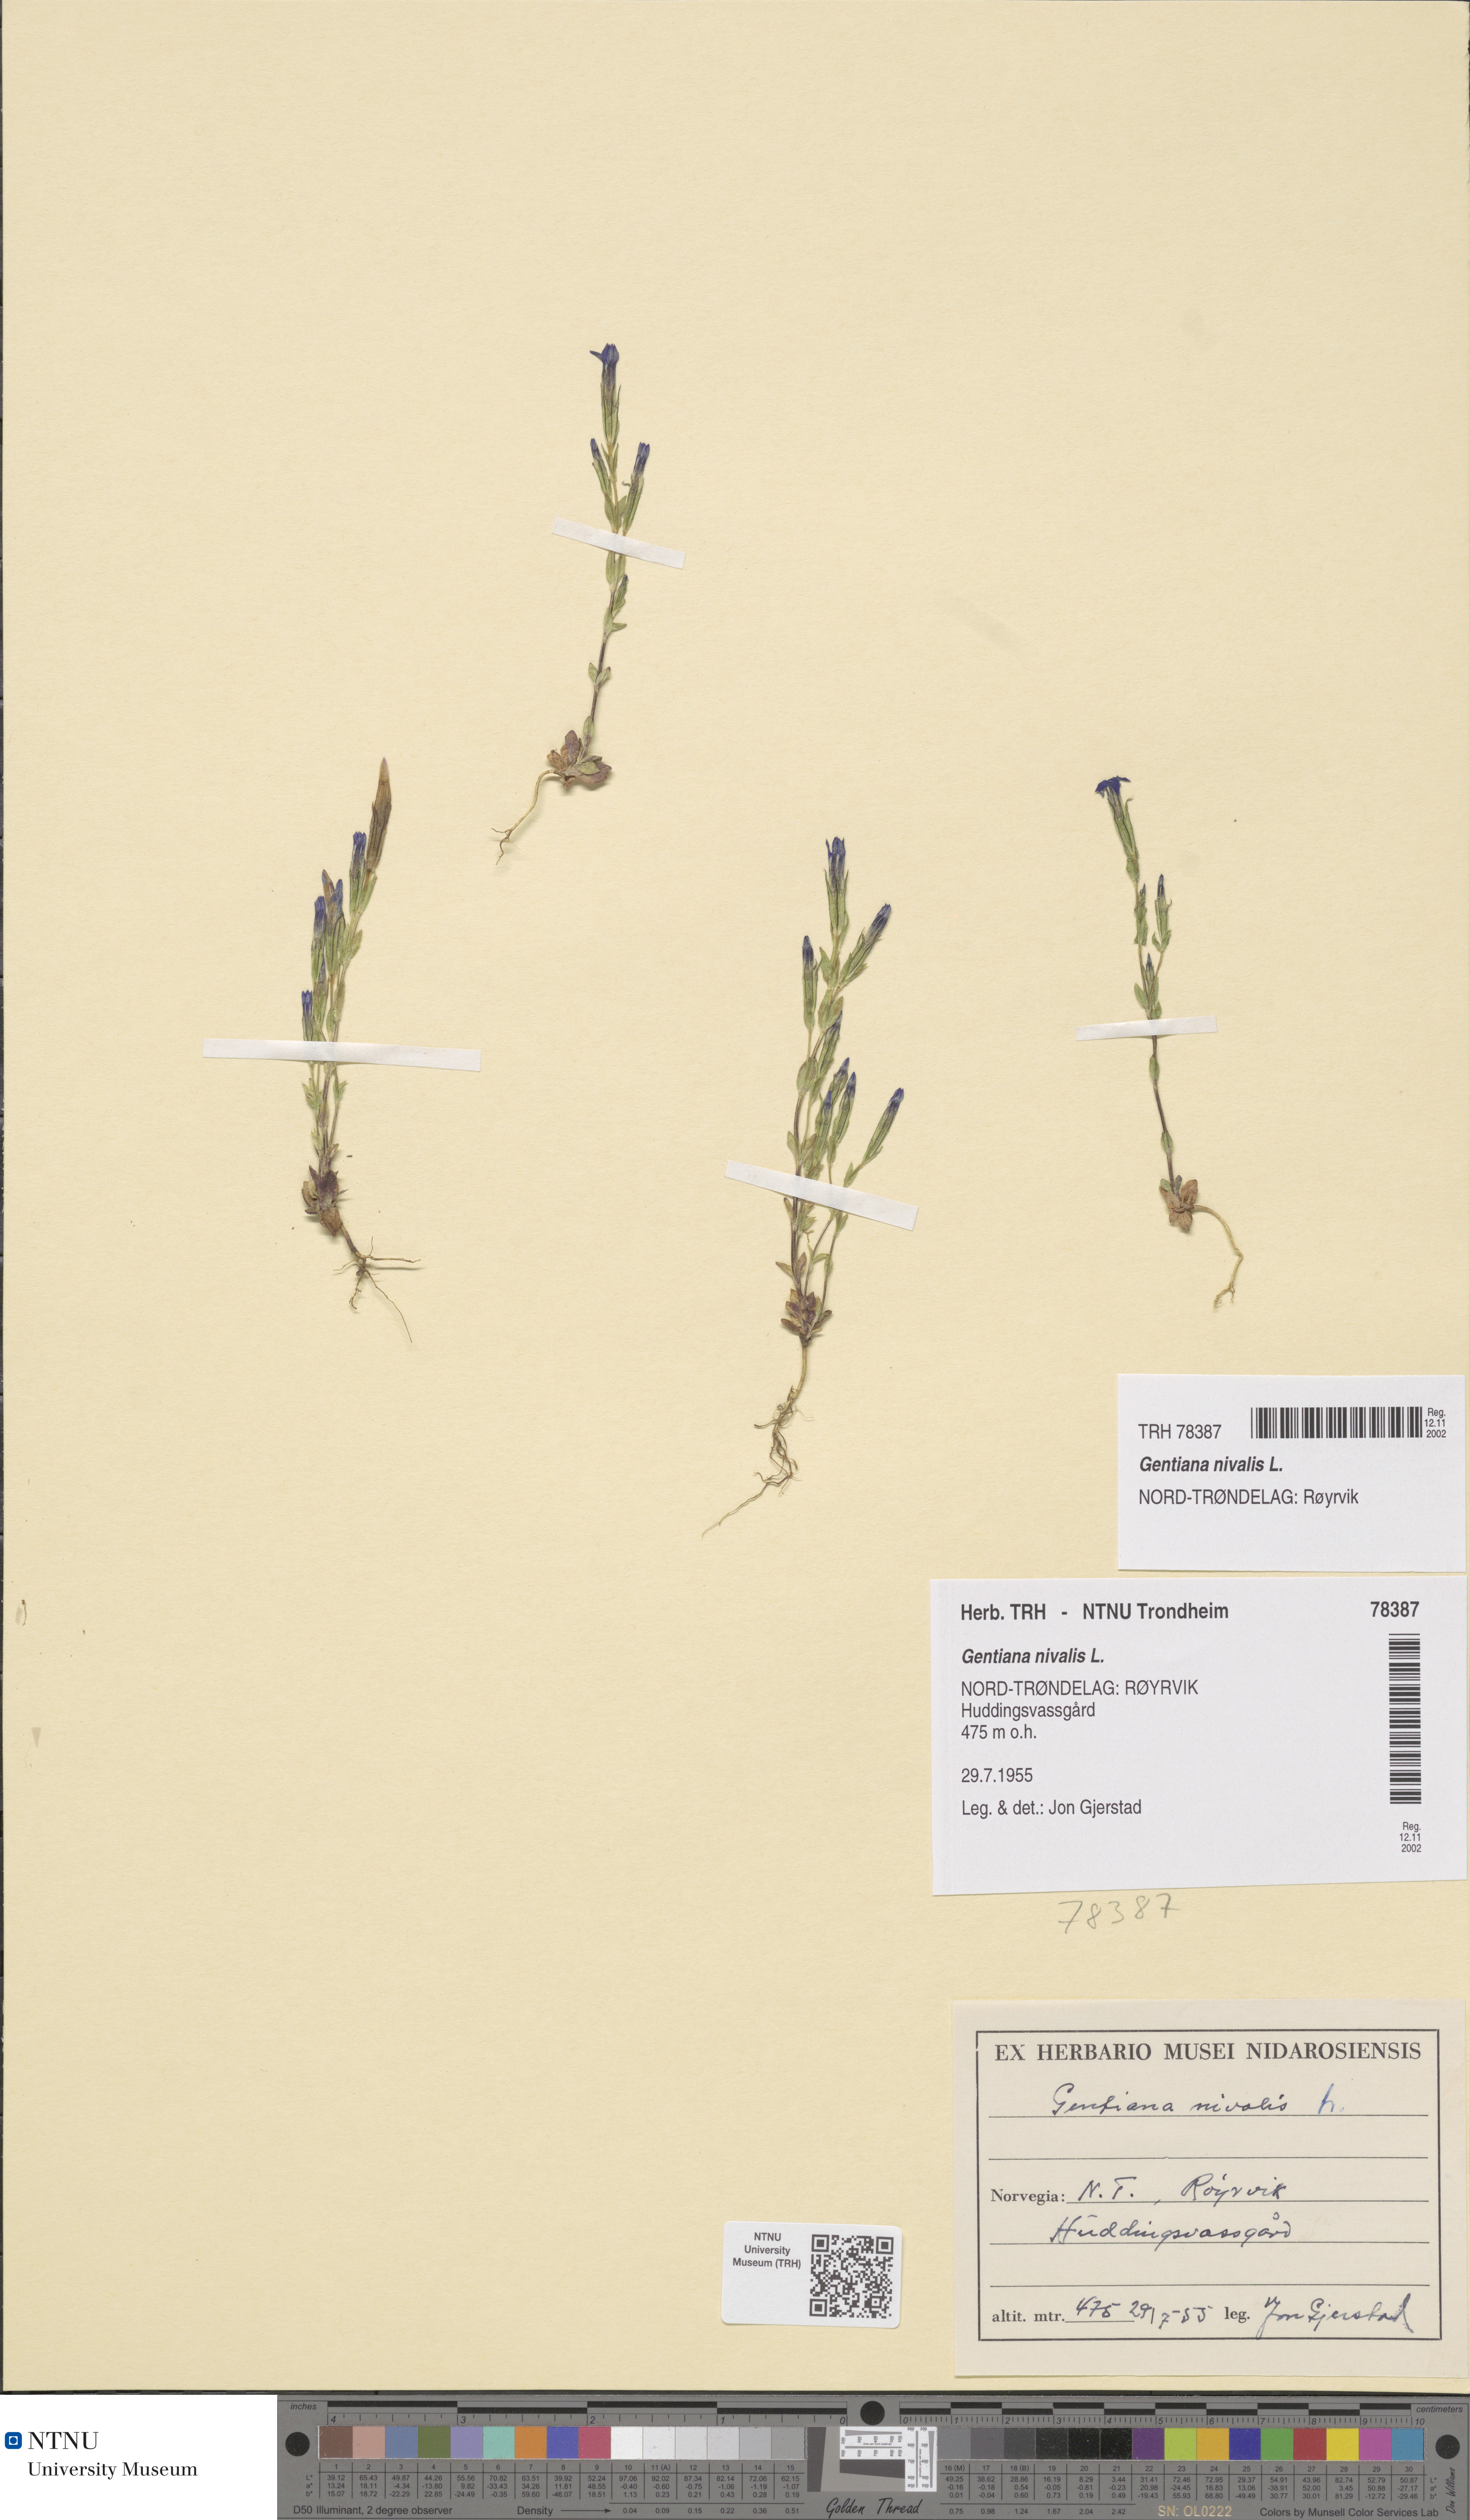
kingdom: Plantae
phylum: Tracheophyta
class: Magnoliopsida
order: Gentianales
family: Gentianaceae
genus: Gentiana
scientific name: Gentiana nivalis
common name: Alpine gentian
